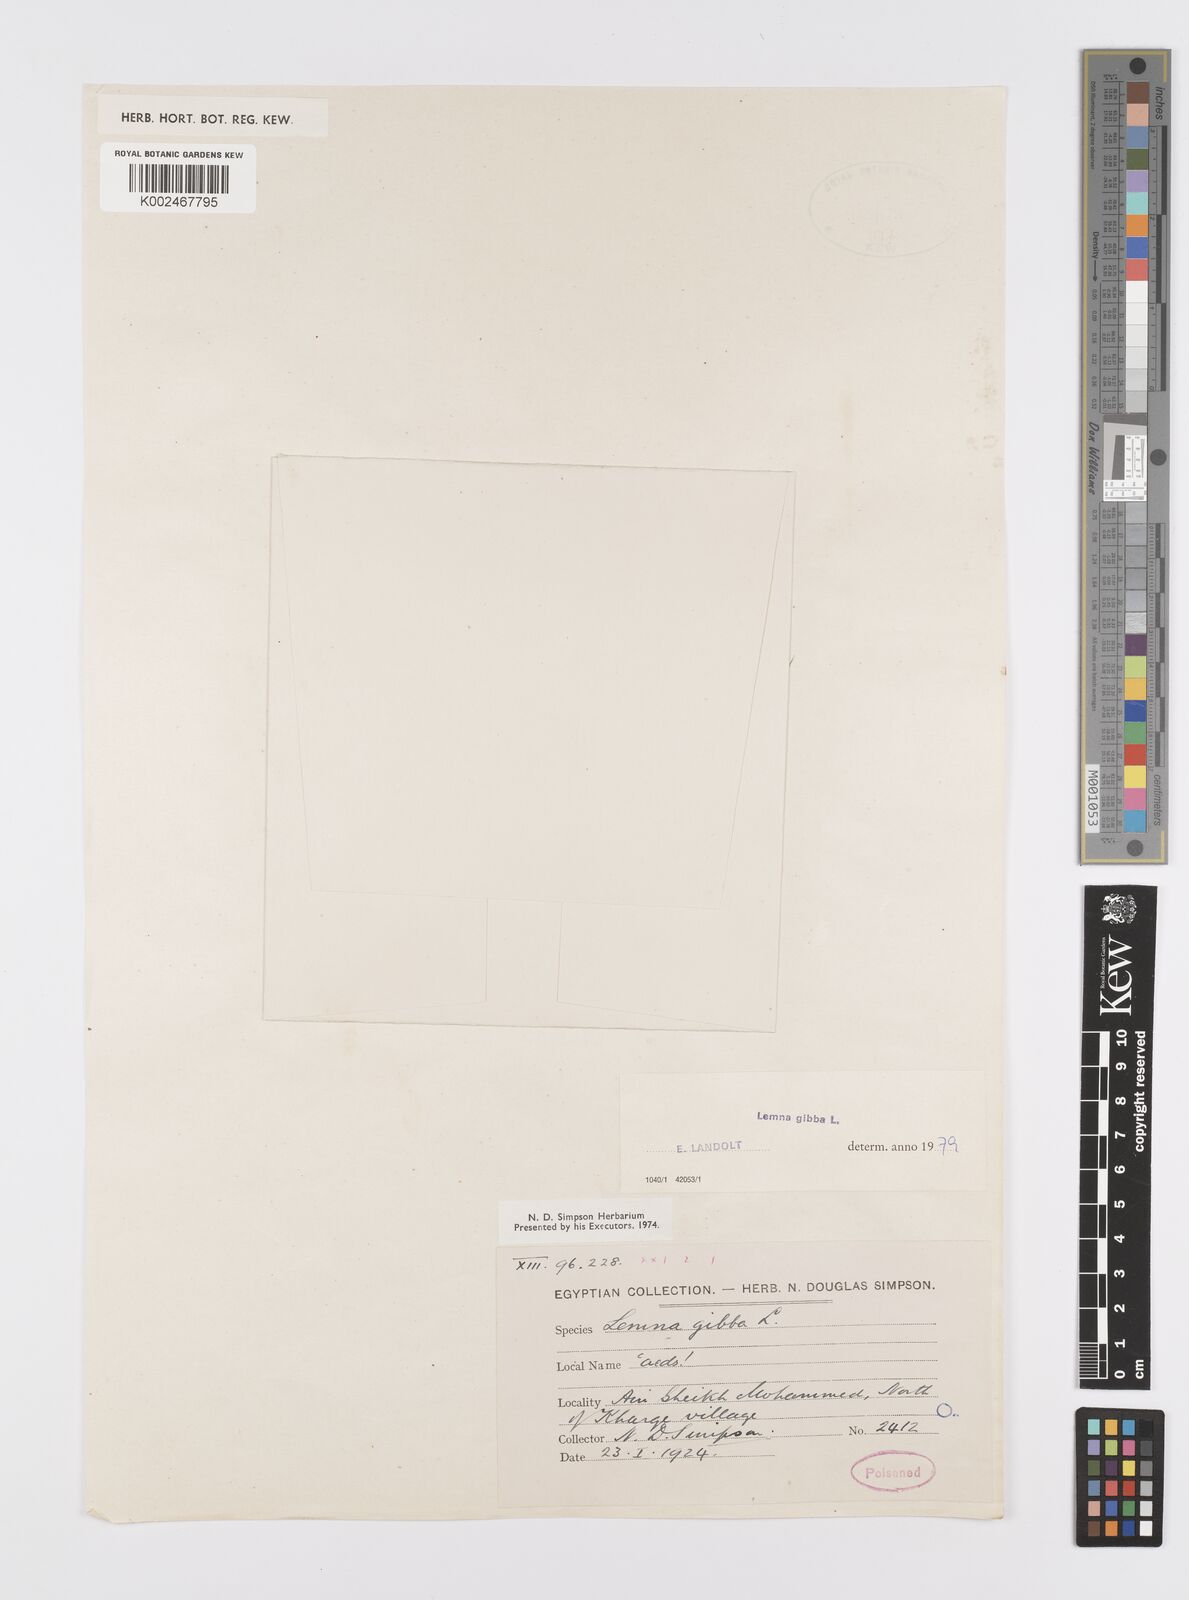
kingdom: Plantae
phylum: Tracheophyta
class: Liliopsida
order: Alismatales
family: Araceae
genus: Lemna
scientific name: Lemna gibba
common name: Fat duckweed
